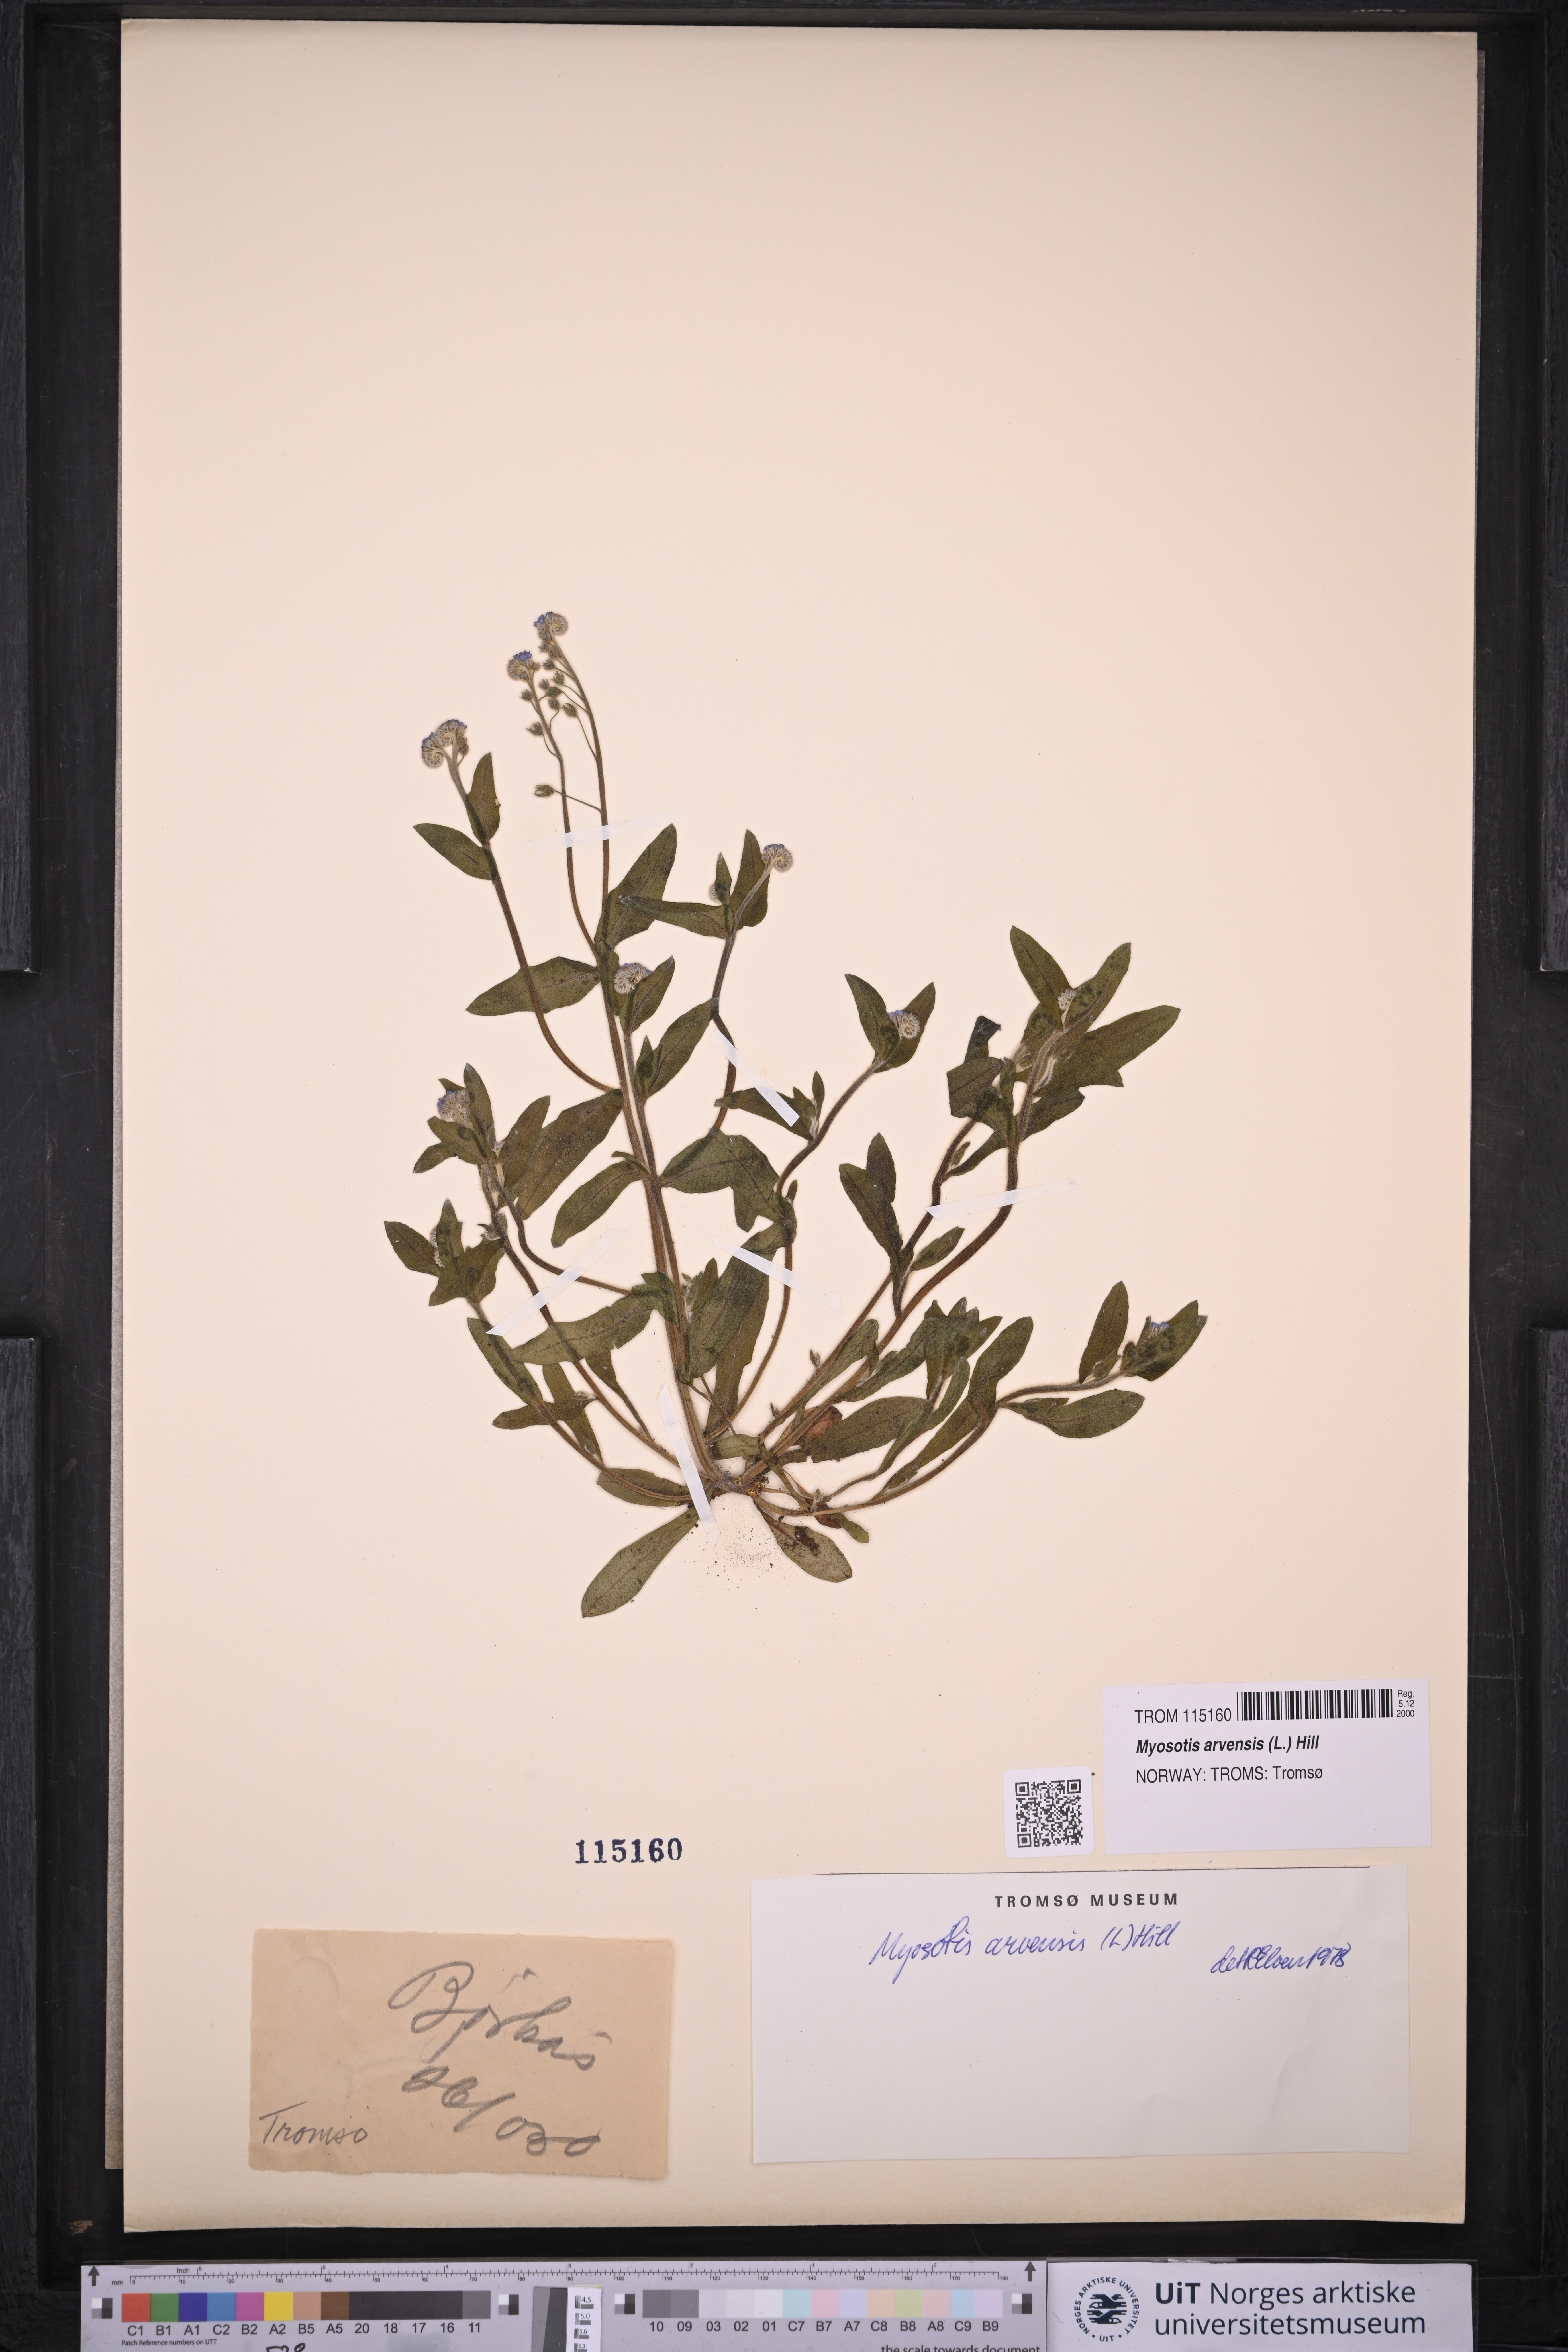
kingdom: Plantae
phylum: Tracheophyta
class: Magnoliopsida
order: Boraginales
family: Boraginaceae
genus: Myosotis
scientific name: Myosotis arvensis
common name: Field forget-me-not
